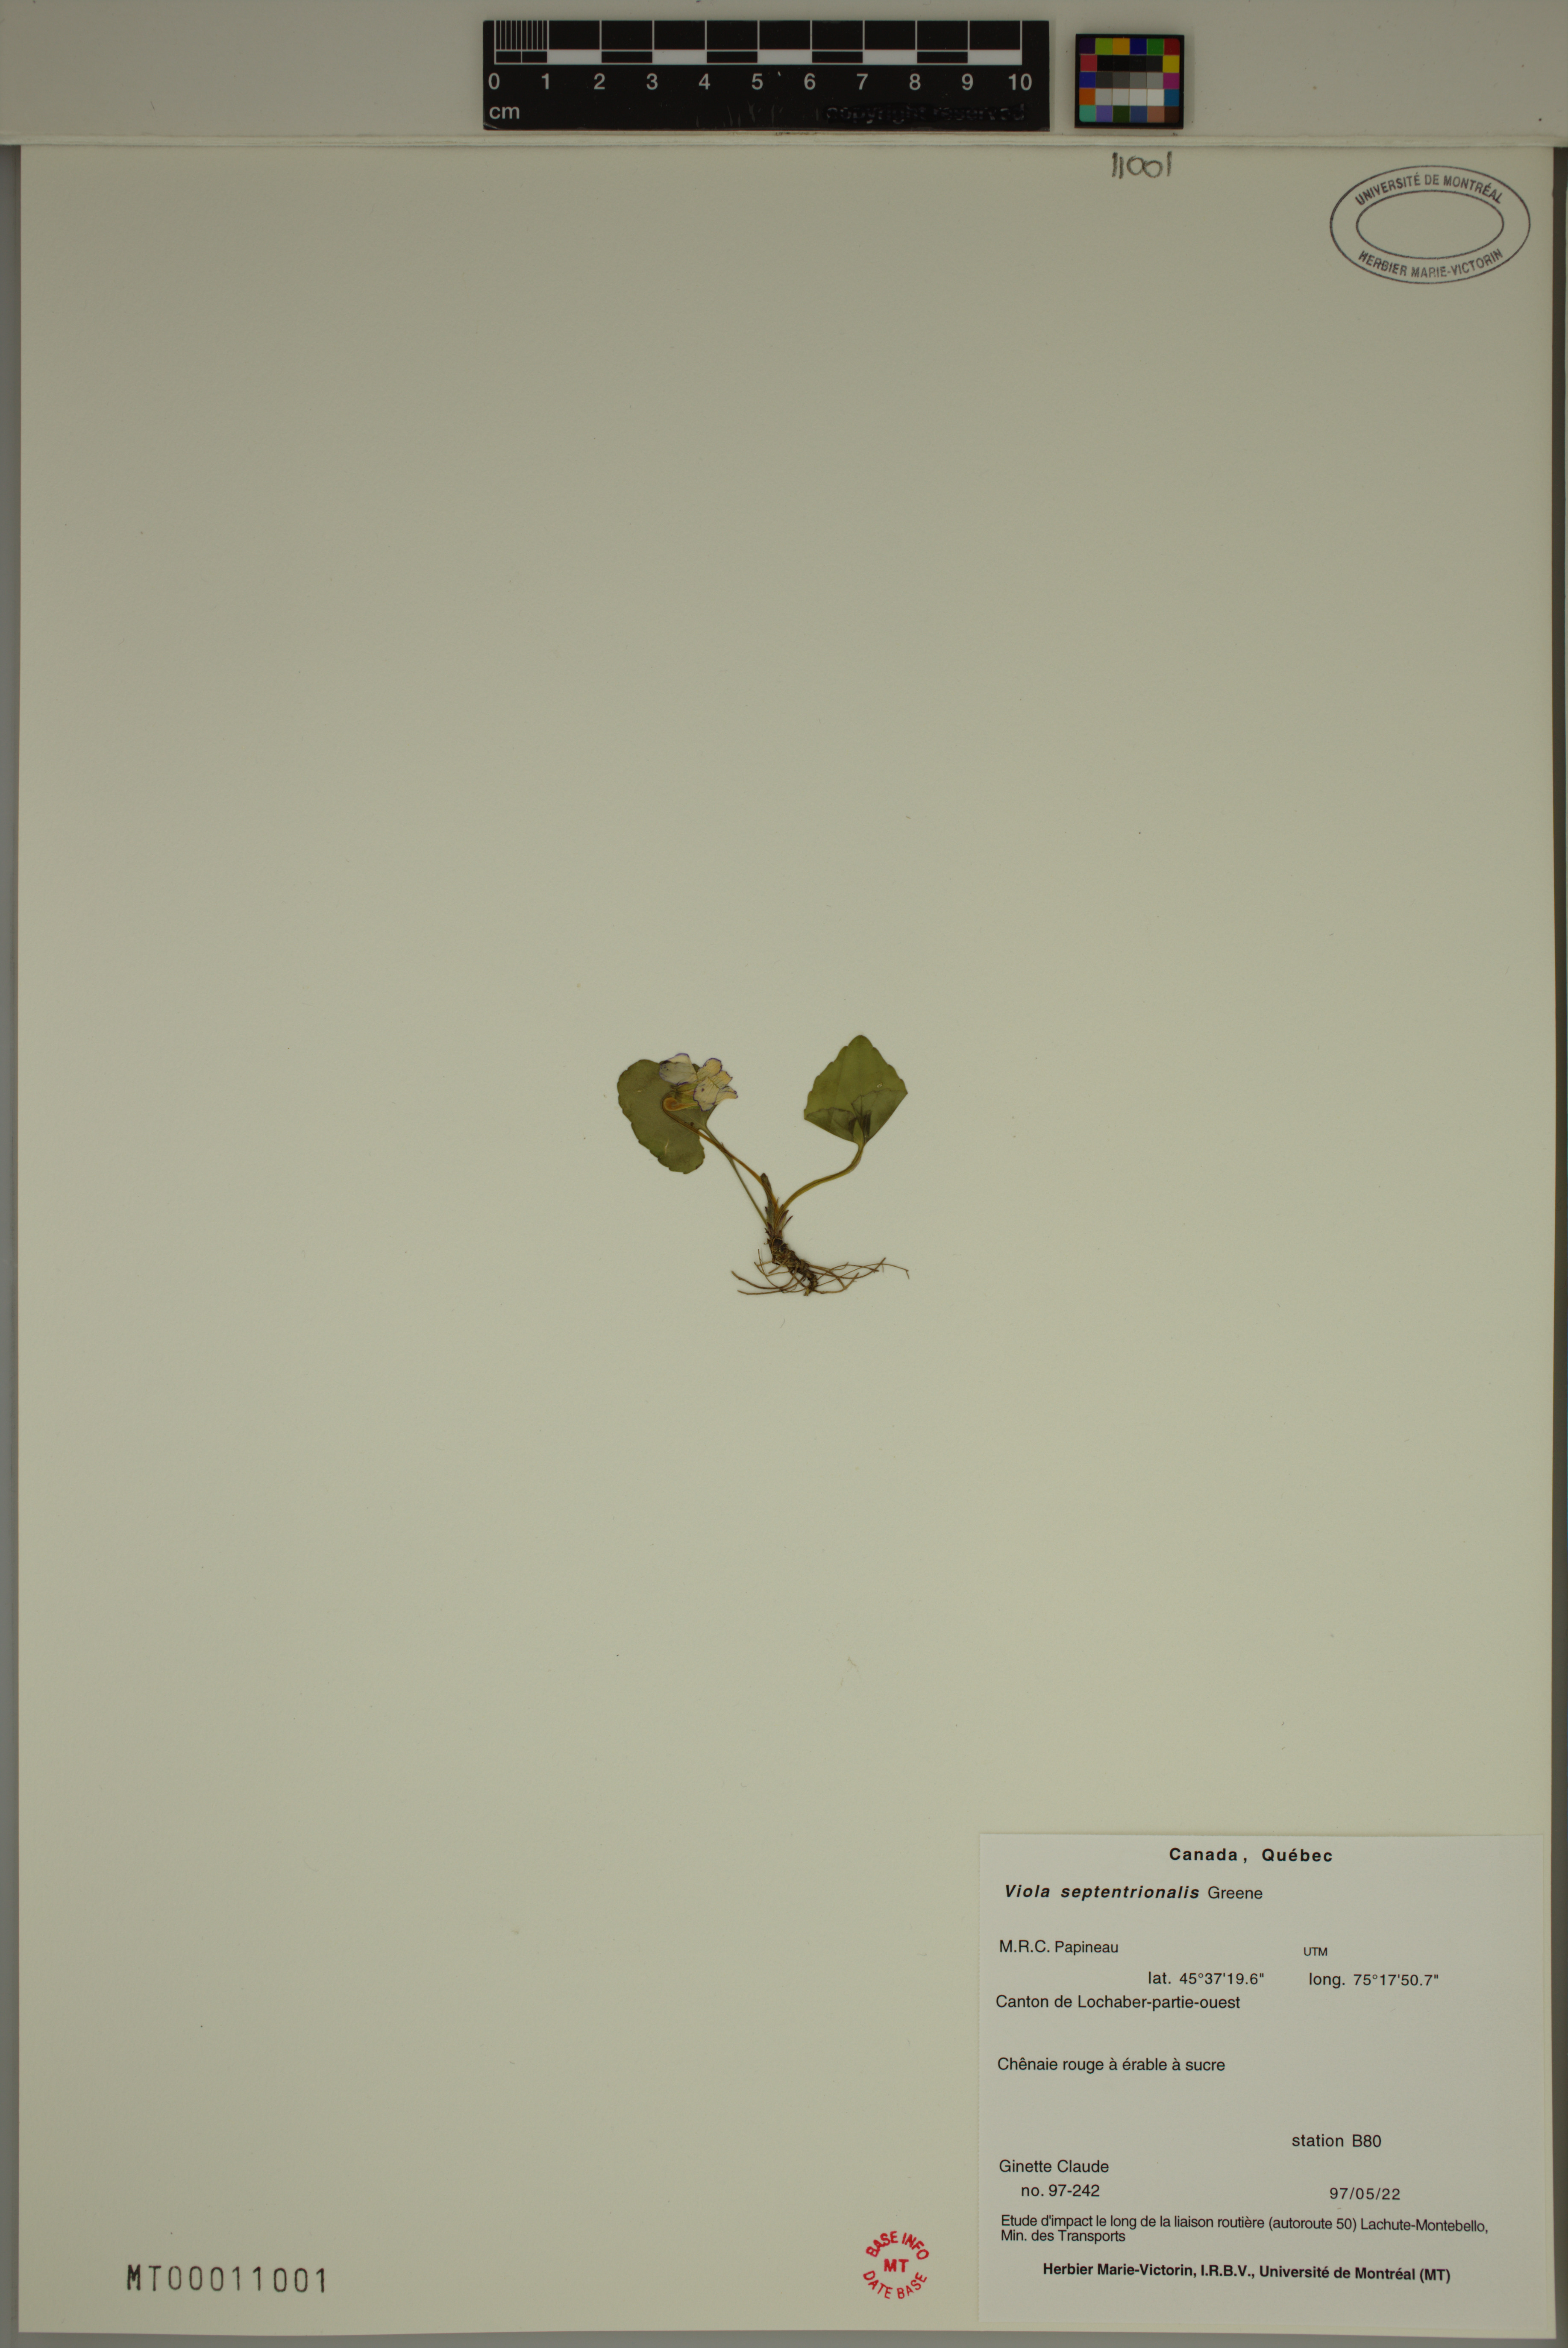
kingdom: Plantae
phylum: Tracheophyta
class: Magnoliopsida
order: Malpighiales
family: Violaceae
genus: Viola
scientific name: Viola sororia
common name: Dooryard violet
